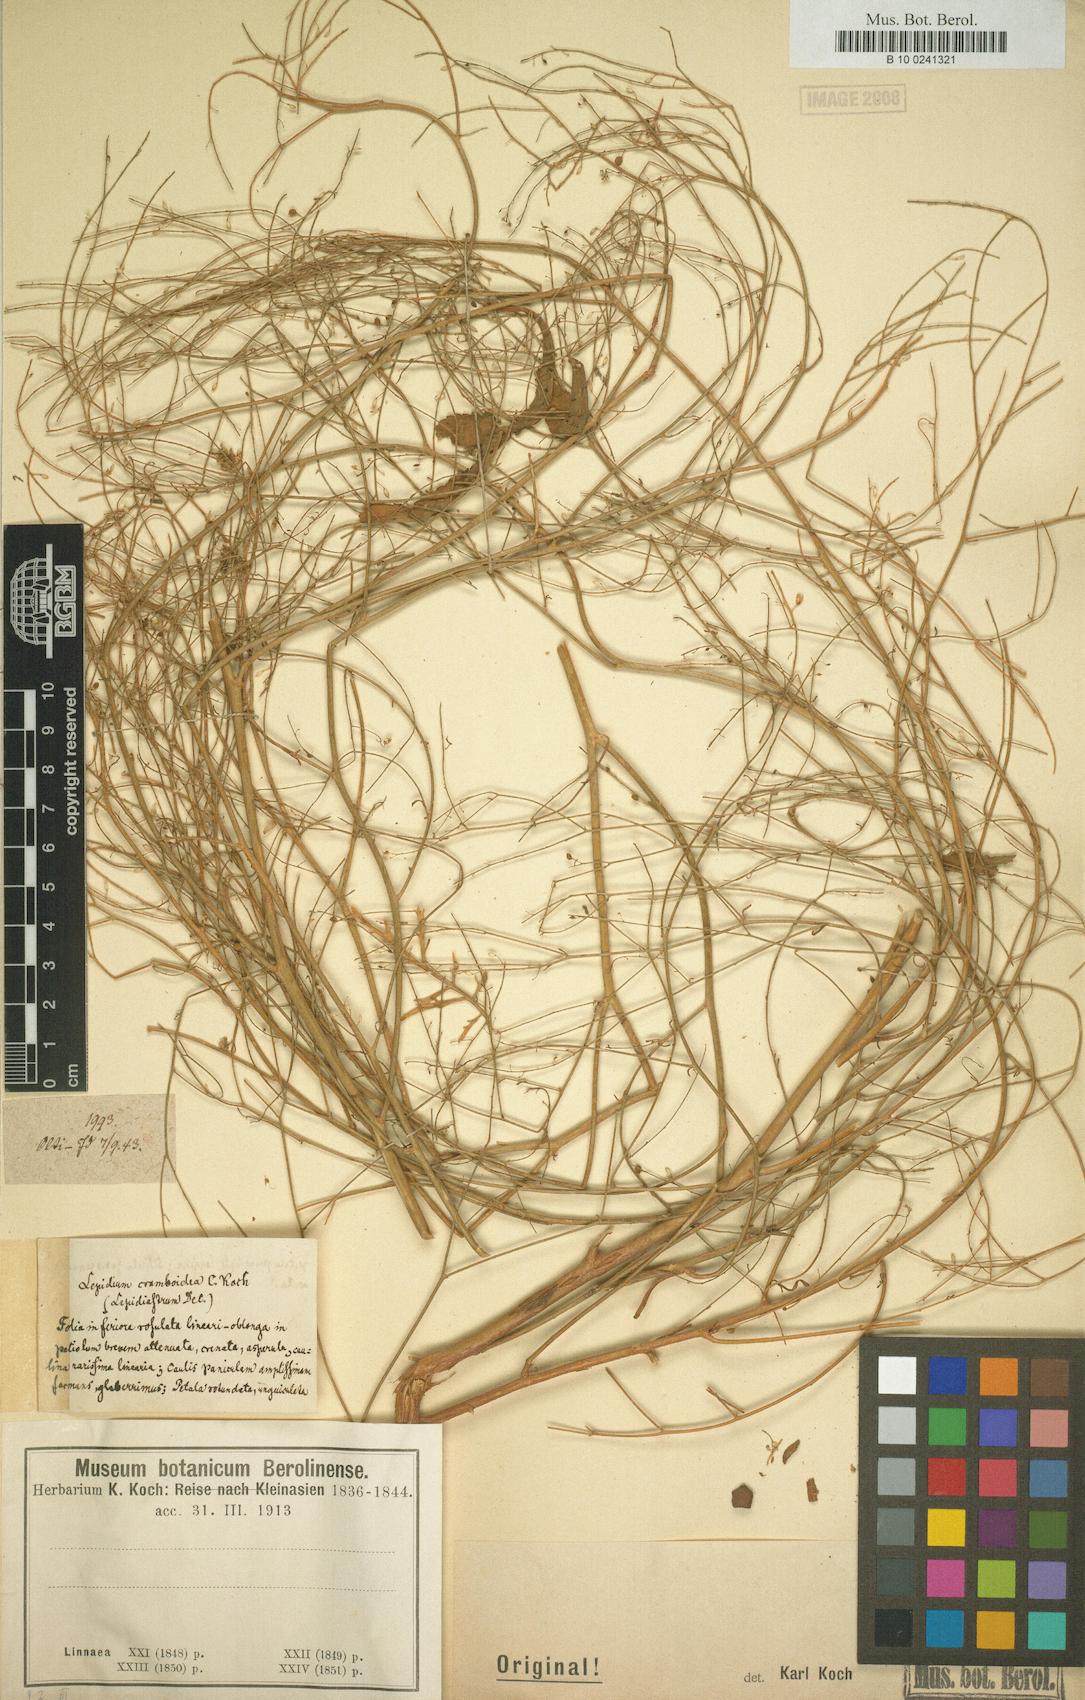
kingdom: Plantae
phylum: Tracheophyta
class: Magnoliopsida
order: Brassicales
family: Brassicaceae
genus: Lepidium
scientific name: Lepidium
